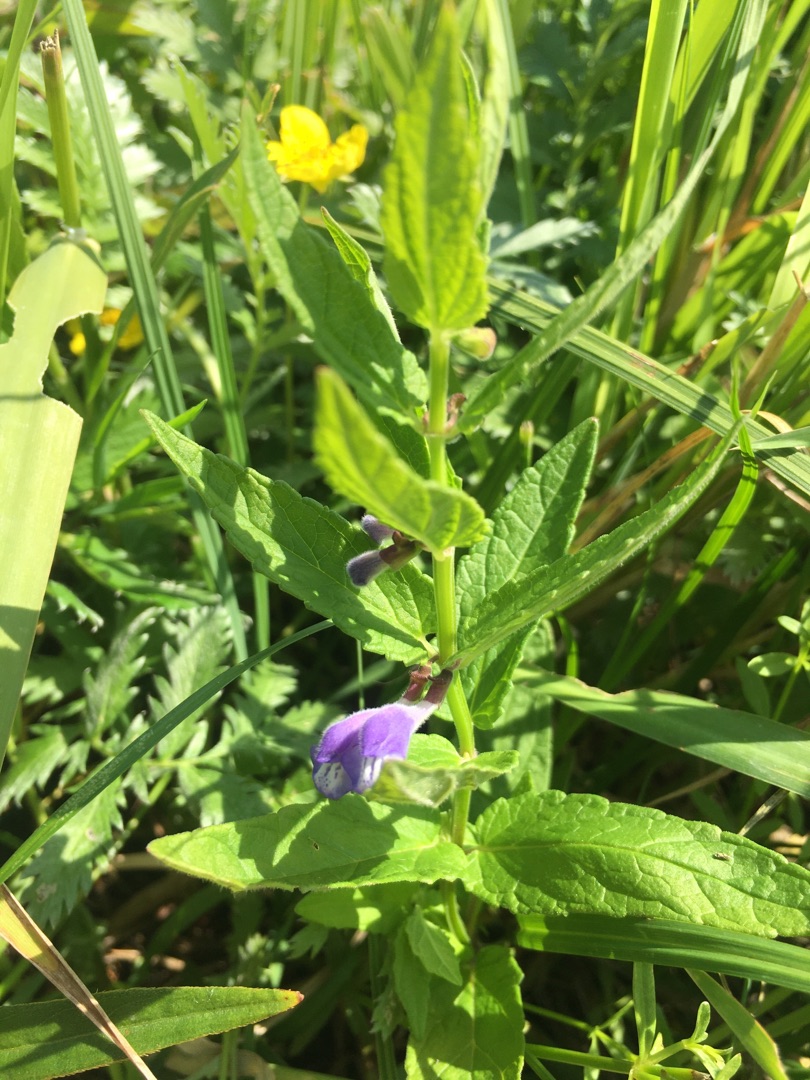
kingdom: Plantae
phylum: Tracheophyta
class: Magnoliopsida
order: Lamiales
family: Lamiaceae
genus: Scutellaria
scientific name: Scutellaria galericulata
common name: Almindelig skjolddrager
